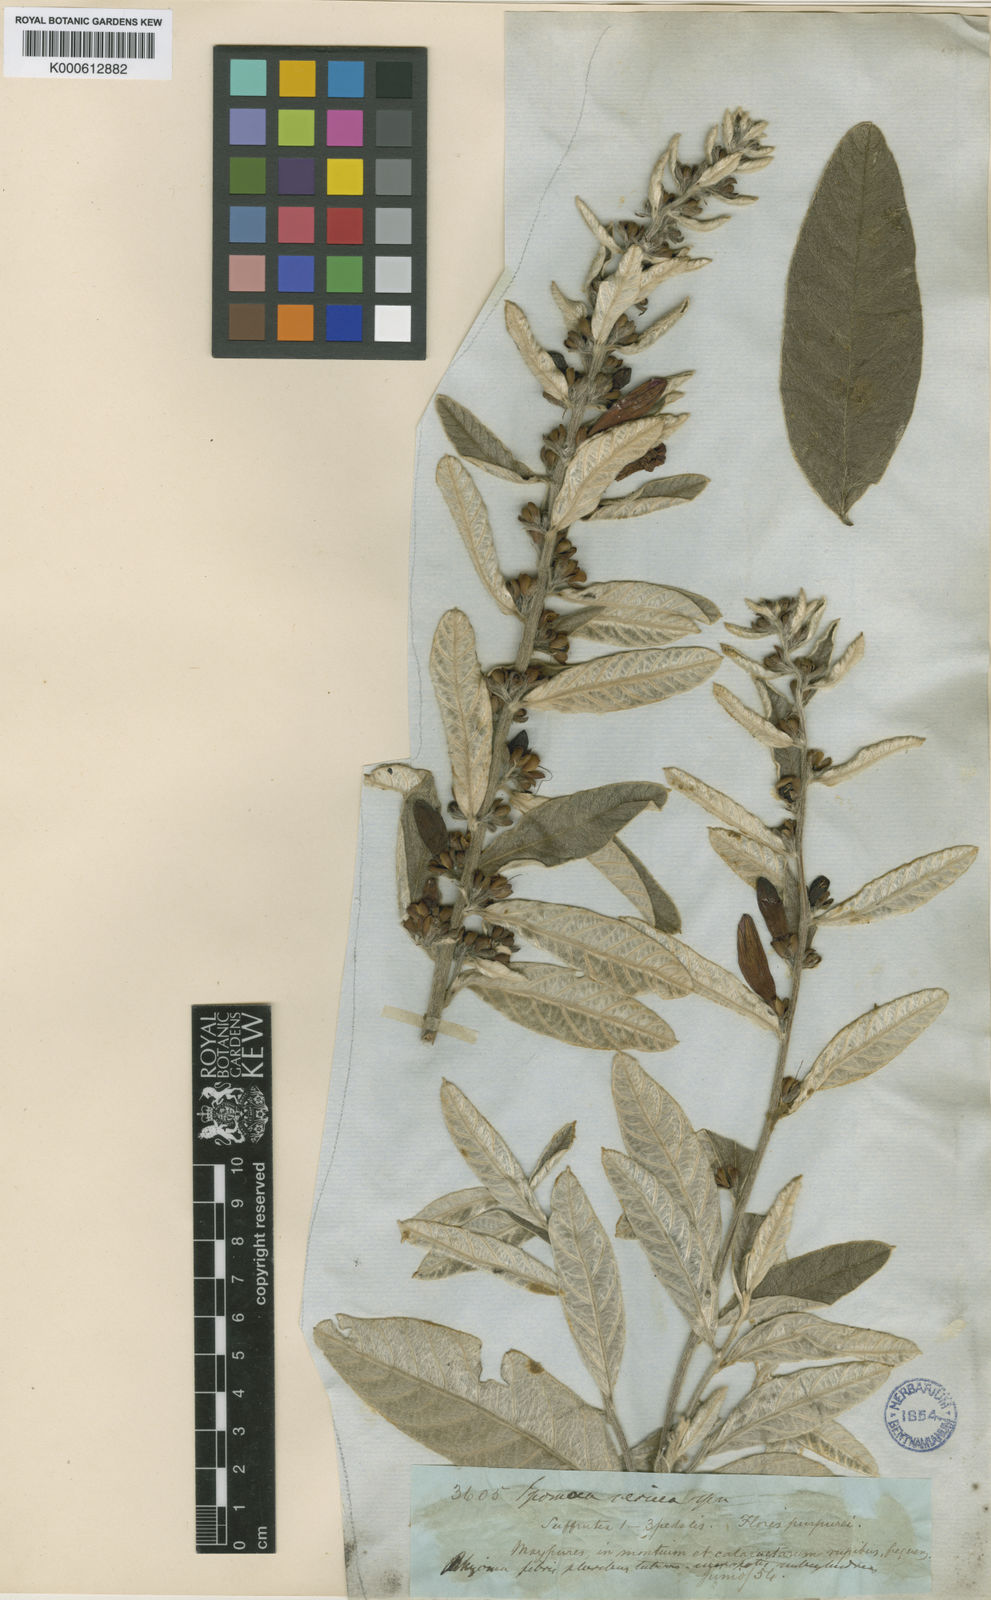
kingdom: Plantae
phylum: Tracheophyta
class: Magnoliopsida
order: Solanales
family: Convolvulaceae
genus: Ipomoea
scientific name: Ipomoea argentea
